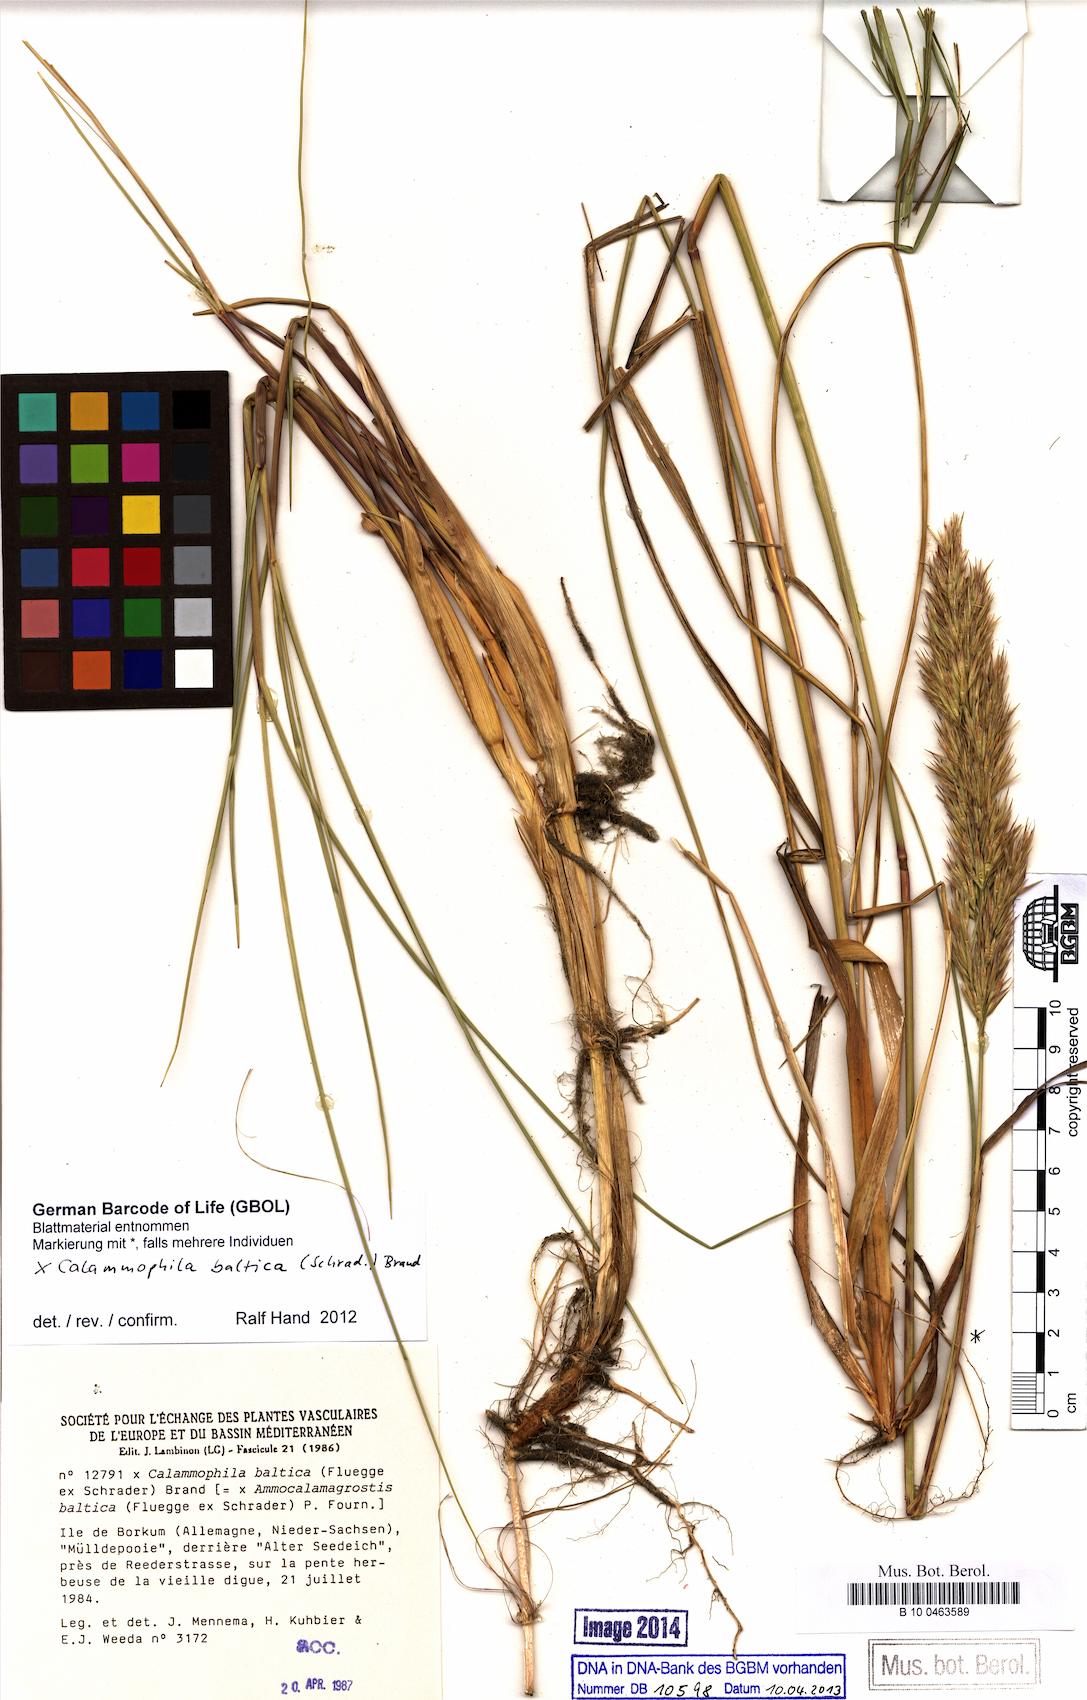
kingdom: Plantae
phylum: Tracheophyta
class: Liliopsida
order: Poales
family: Poaceae
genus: Calamagrostis
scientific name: Calamagrostis baltica
